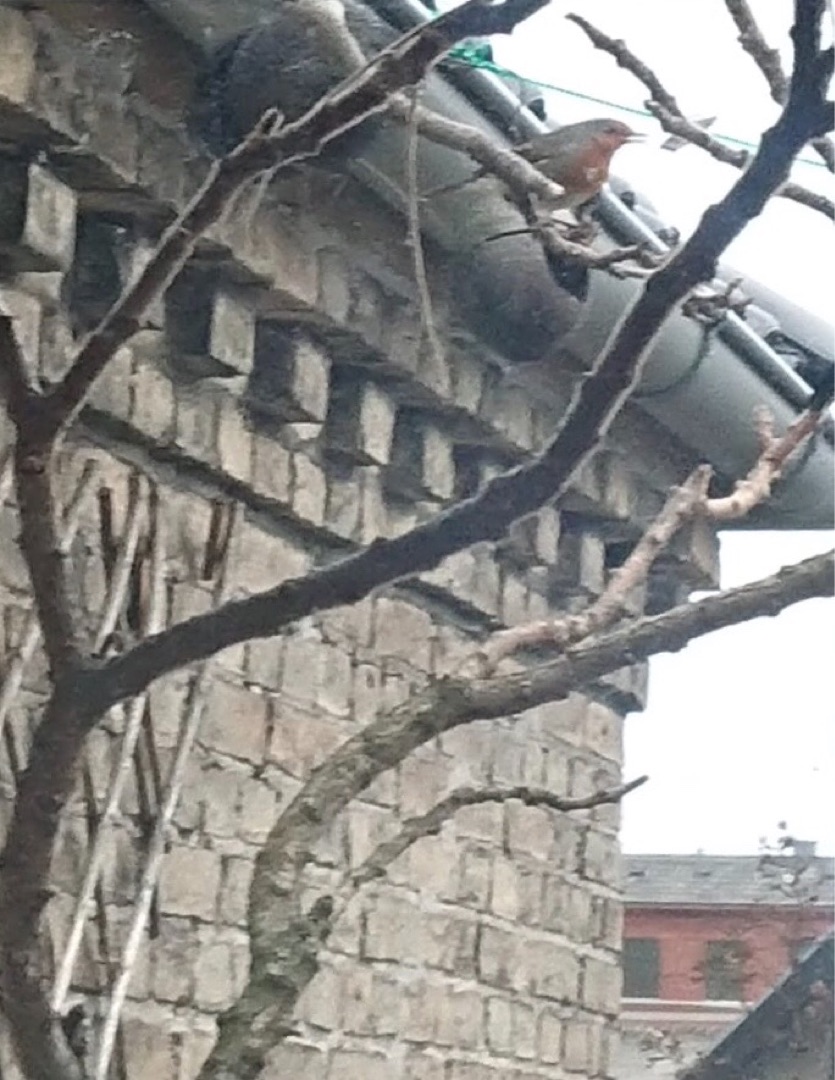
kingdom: Animalia
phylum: Chordata
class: Aves
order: Passeriformes
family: Muscicapidae
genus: Erithacus
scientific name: Erithacus rubecula
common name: Rødhals/rødkælk
